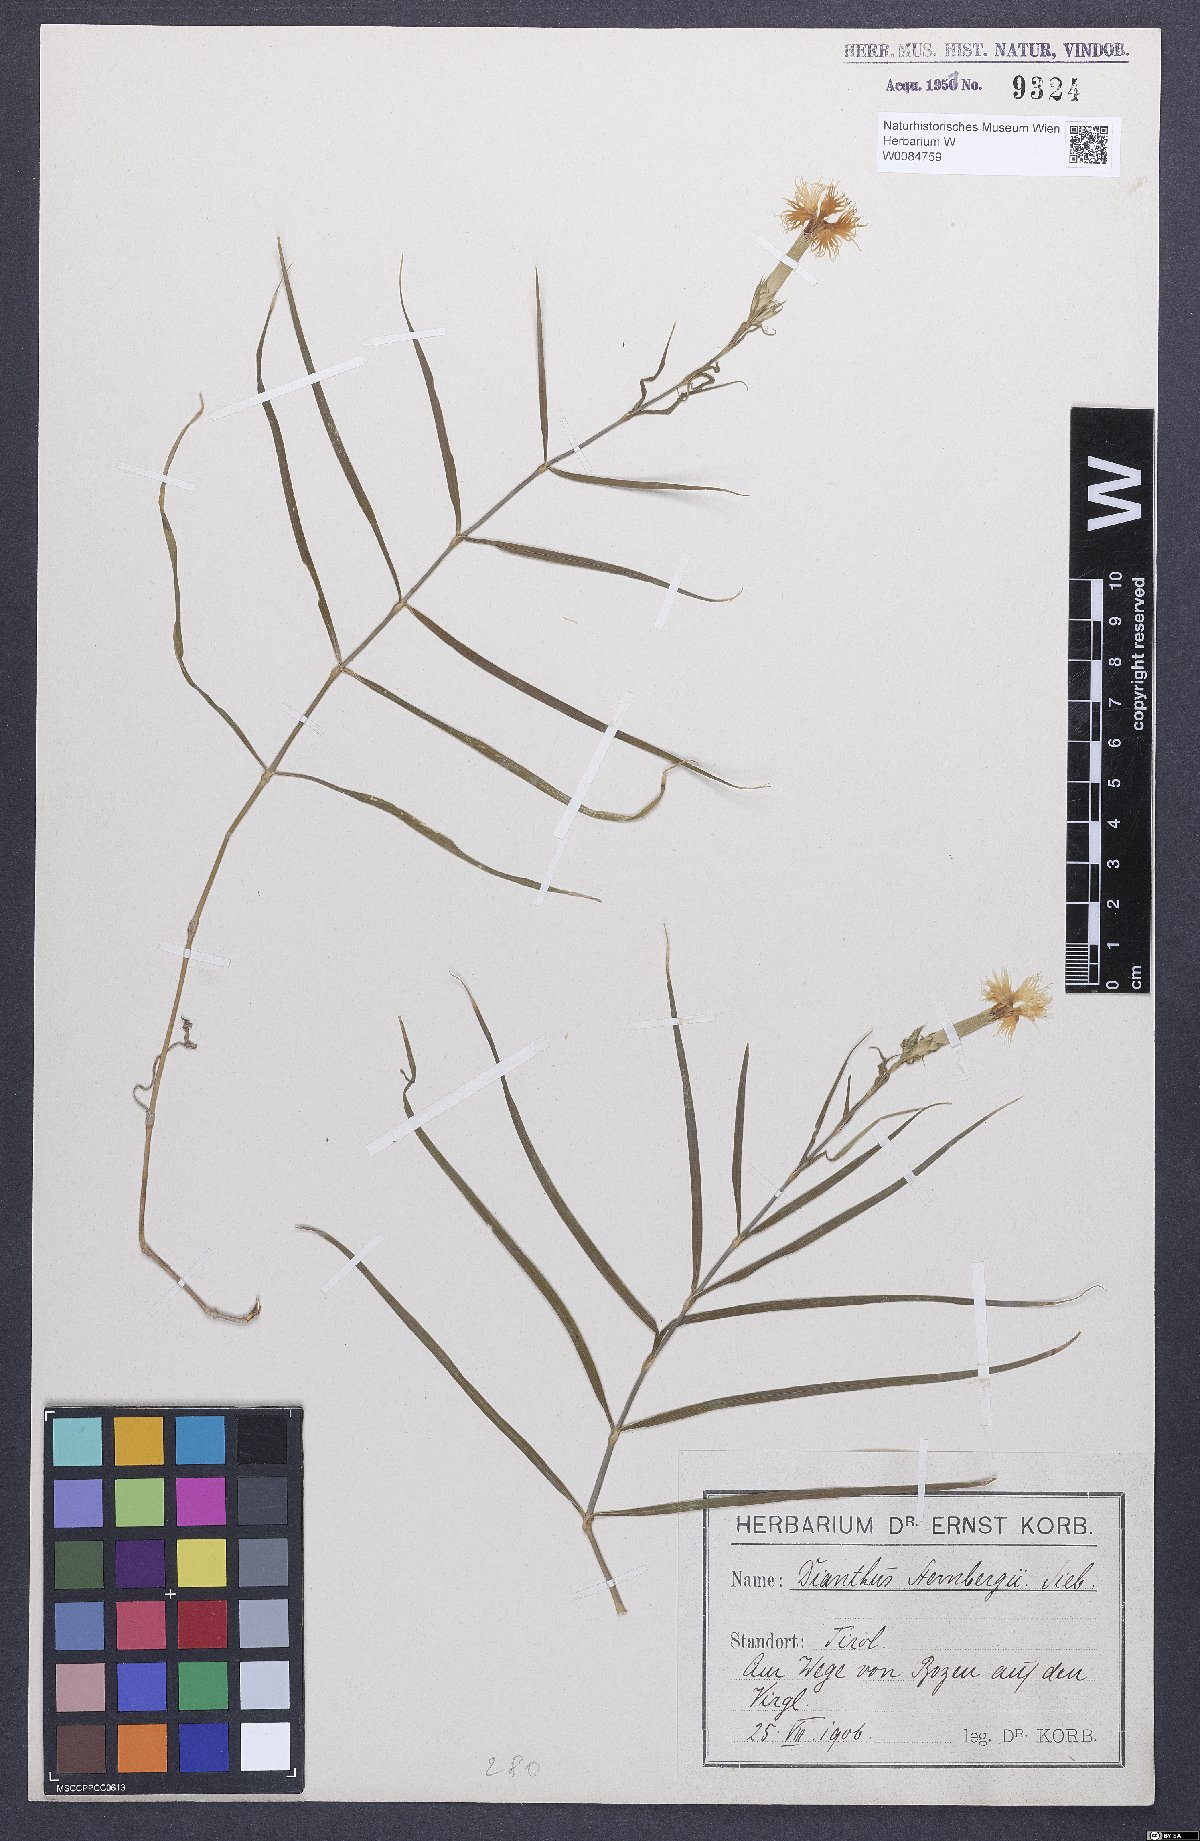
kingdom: Plantae
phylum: Tracheophyta
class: Magnoliopsida
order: Caryophyllales
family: Caryophyllaceae
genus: Dianthus
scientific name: Dianthus monspessulanus
